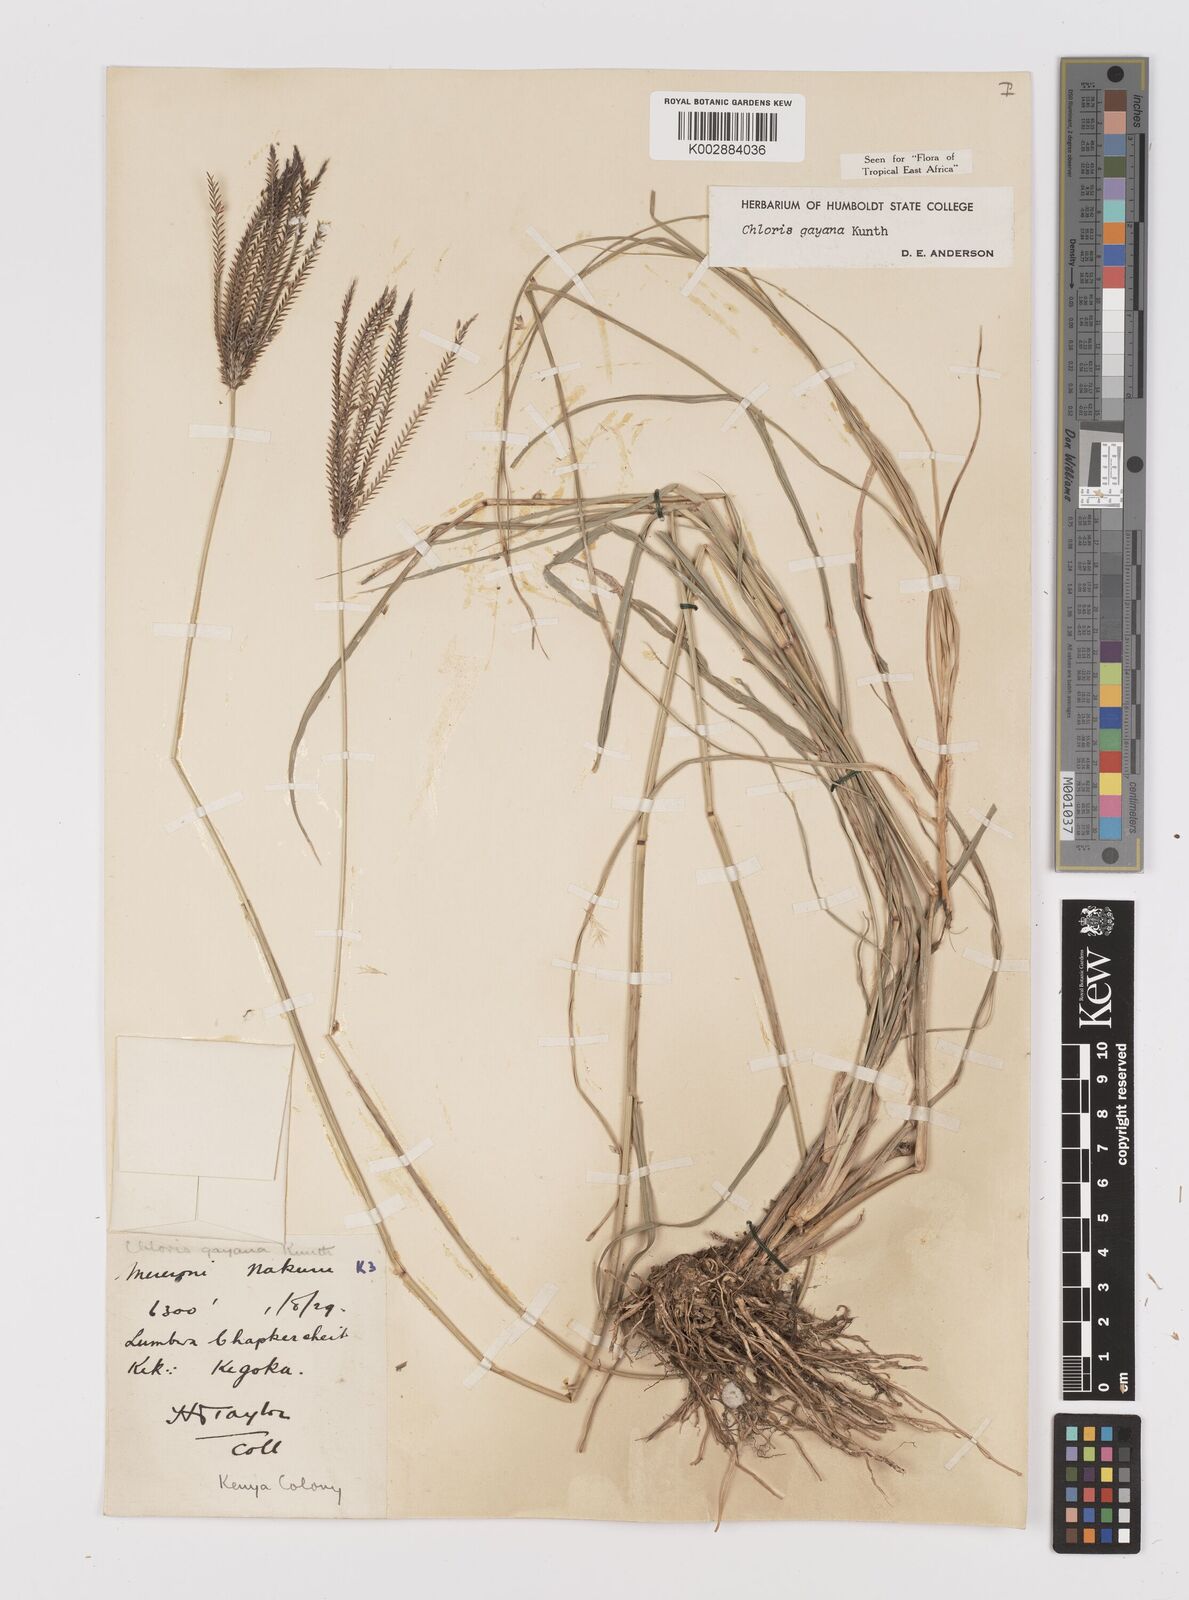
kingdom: Plantae
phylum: Tracheophyta
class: Liliopsida
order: Poales
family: Poaceae
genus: Chloris
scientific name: Chloris gayana
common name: Rhodes grass
